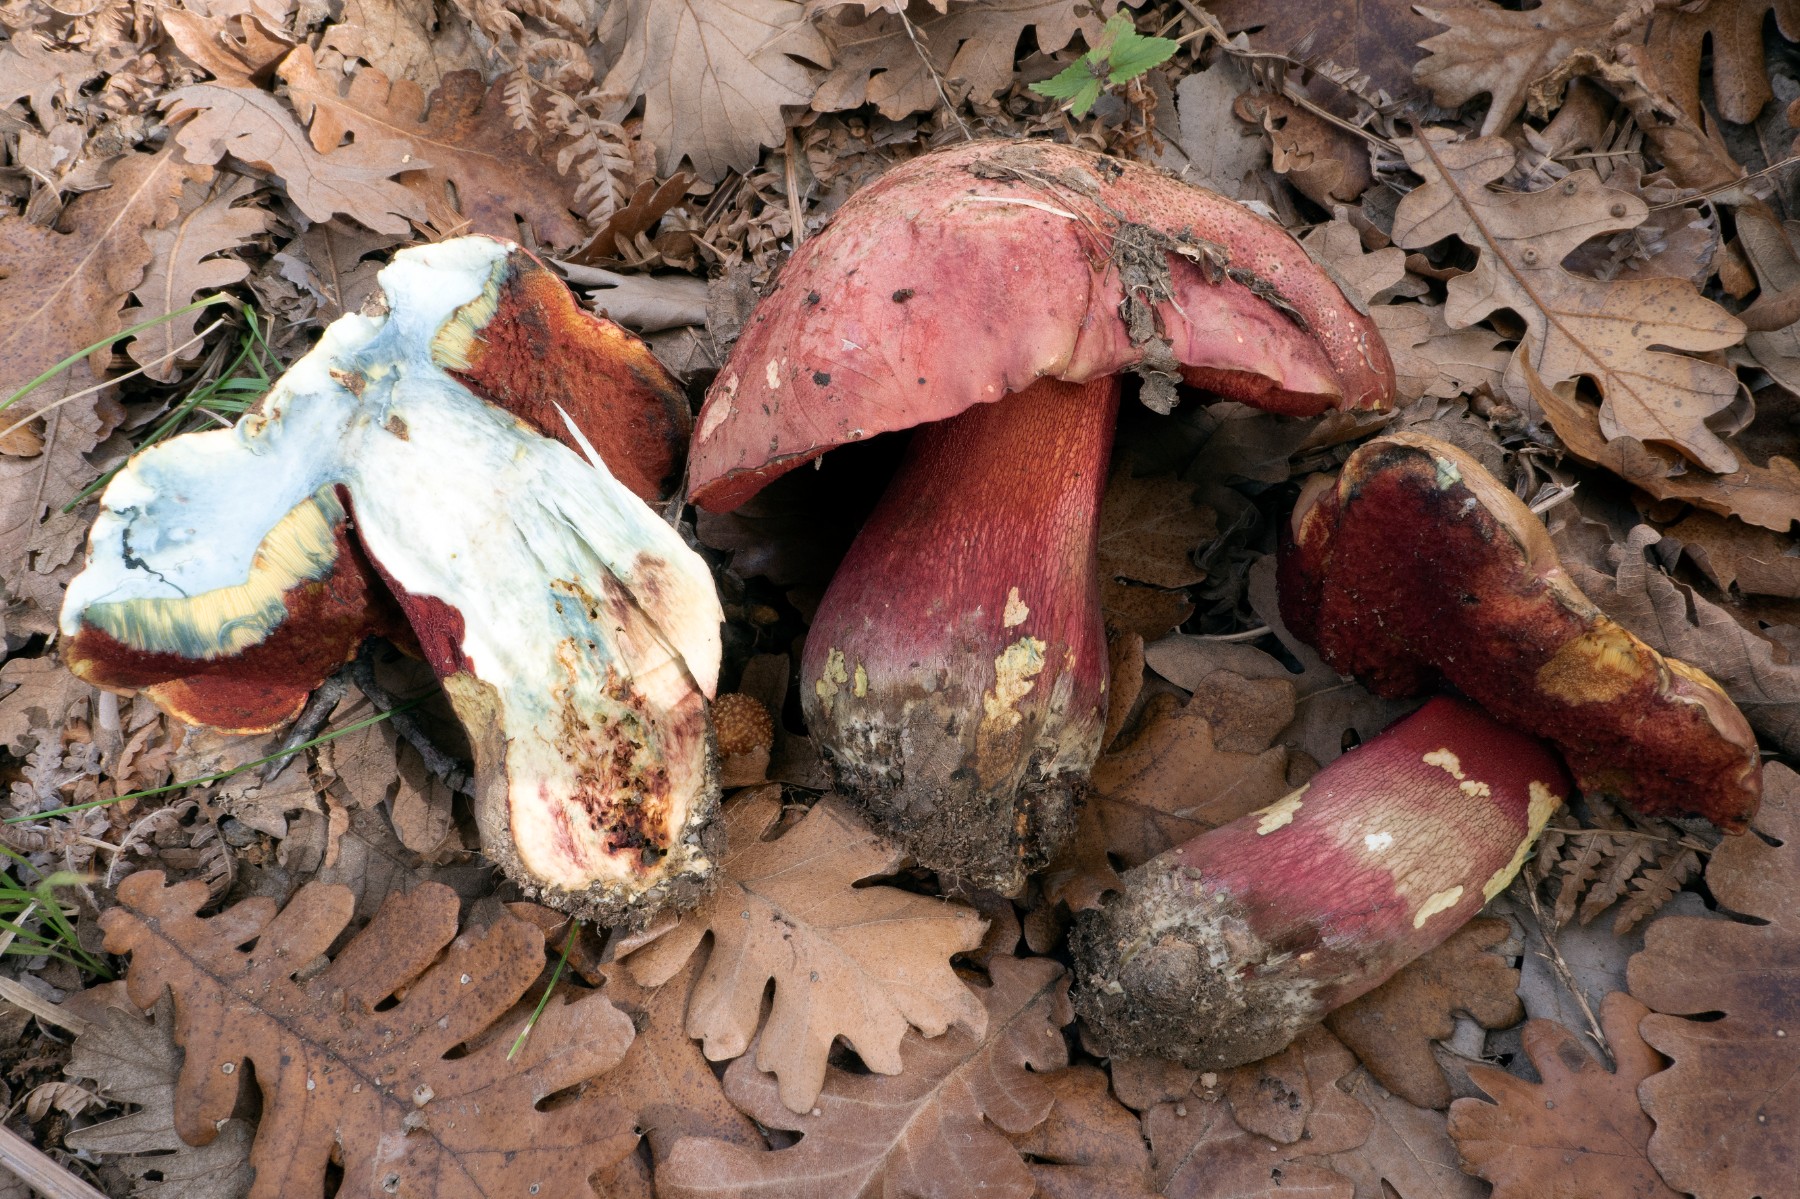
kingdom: Fungi
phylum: Basidiomycota
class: Agaricomycetes
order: Boletales
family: Boletaceae
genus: Rubroboletus
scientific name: Rubroboletus demonensis
